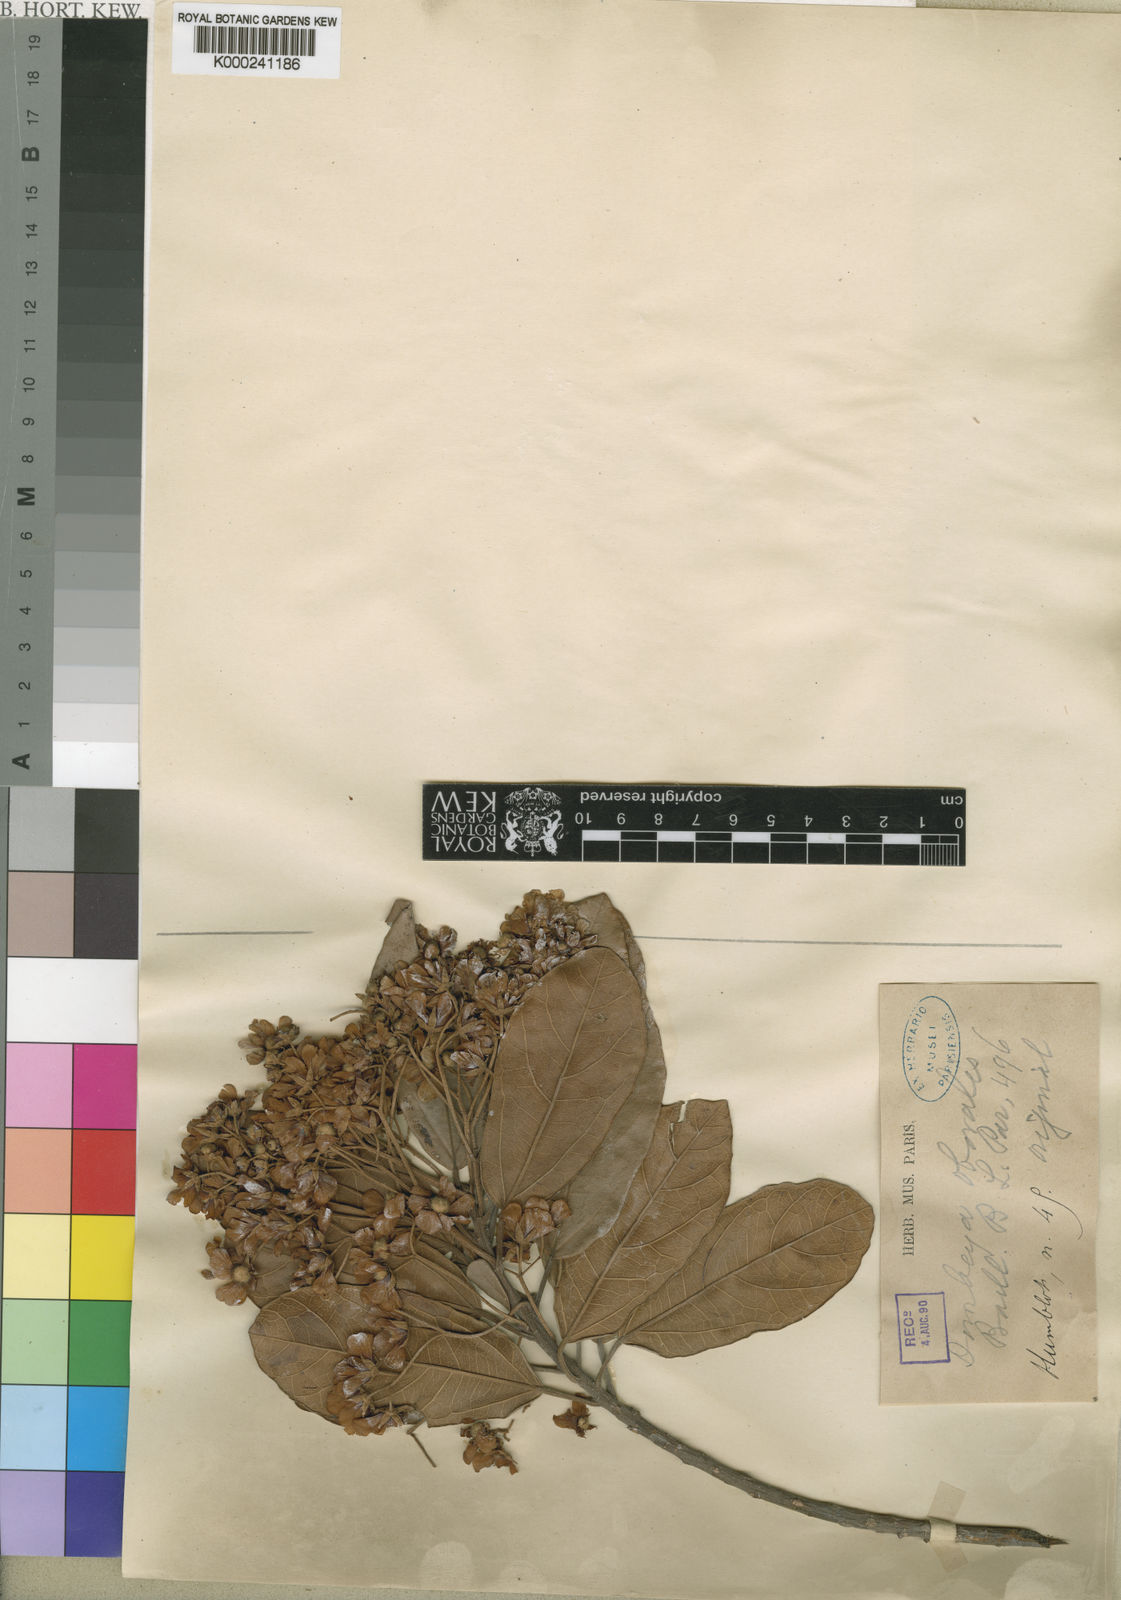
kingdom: Plantae
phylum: Tracheophyta
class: Magnoliopsida
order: Malvales
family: Malvaceae
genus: Dombeya
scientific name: Dombeya obovalis
